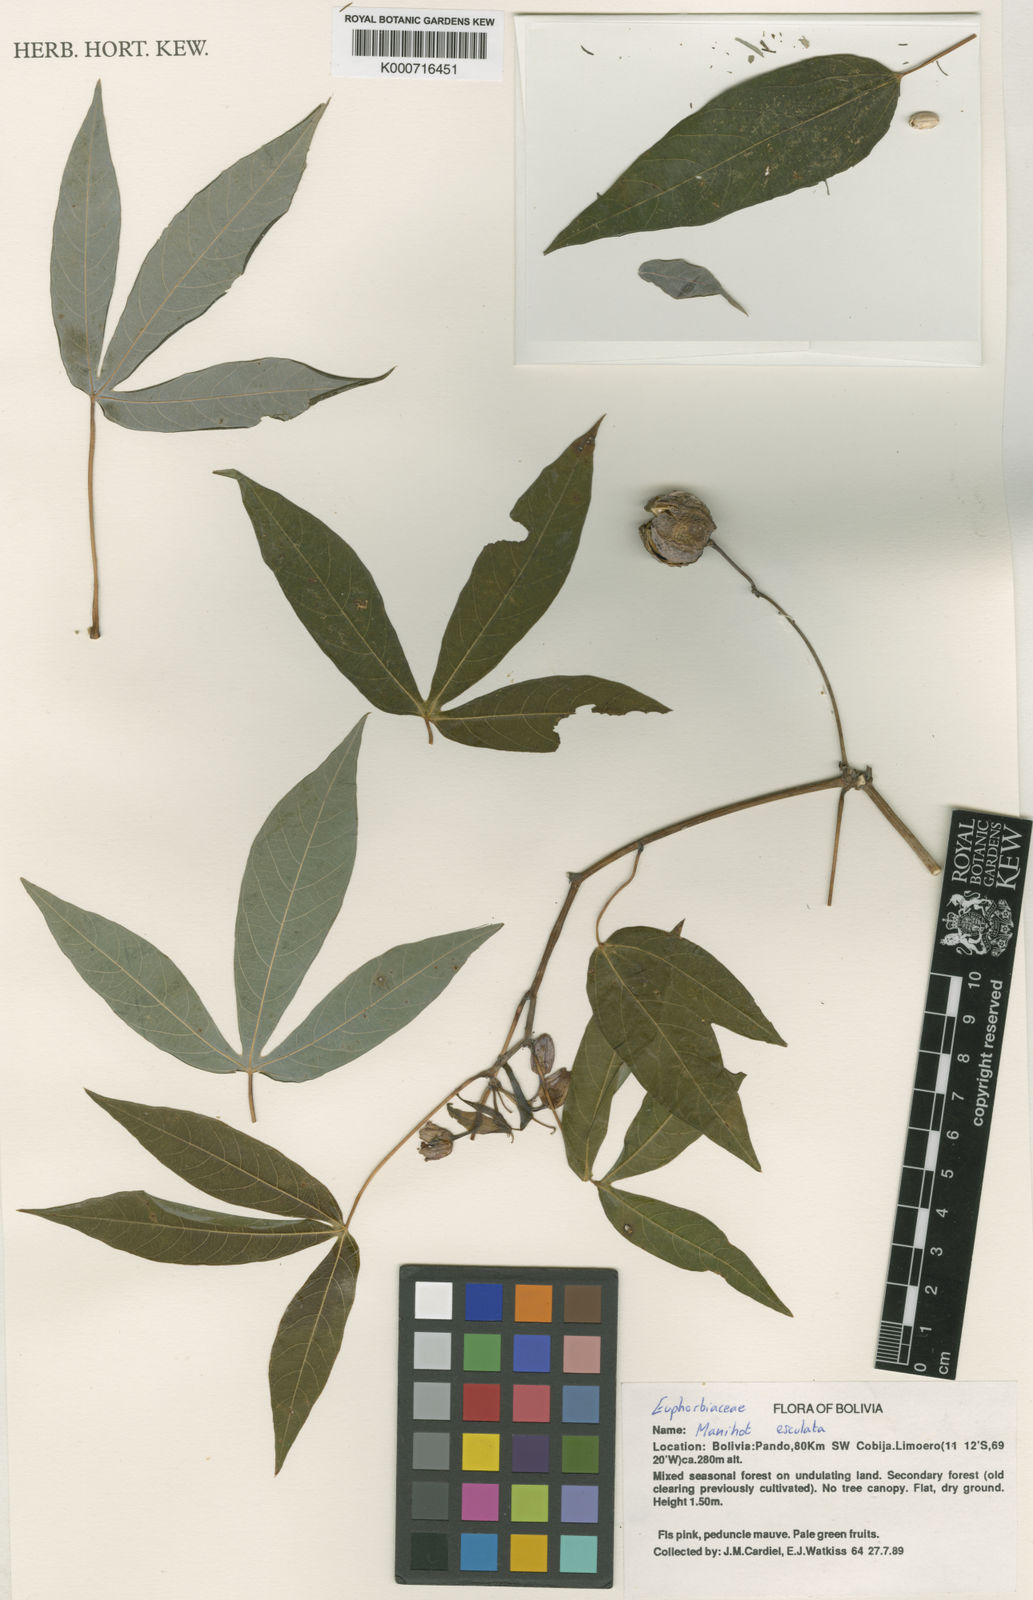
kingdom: Plantae
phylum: Tracheophyta
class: Magnoliopsida
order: Malpighiales
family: Euphorbiaceae
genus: Manihot
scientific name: Manihot esculenta
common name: Cassava
